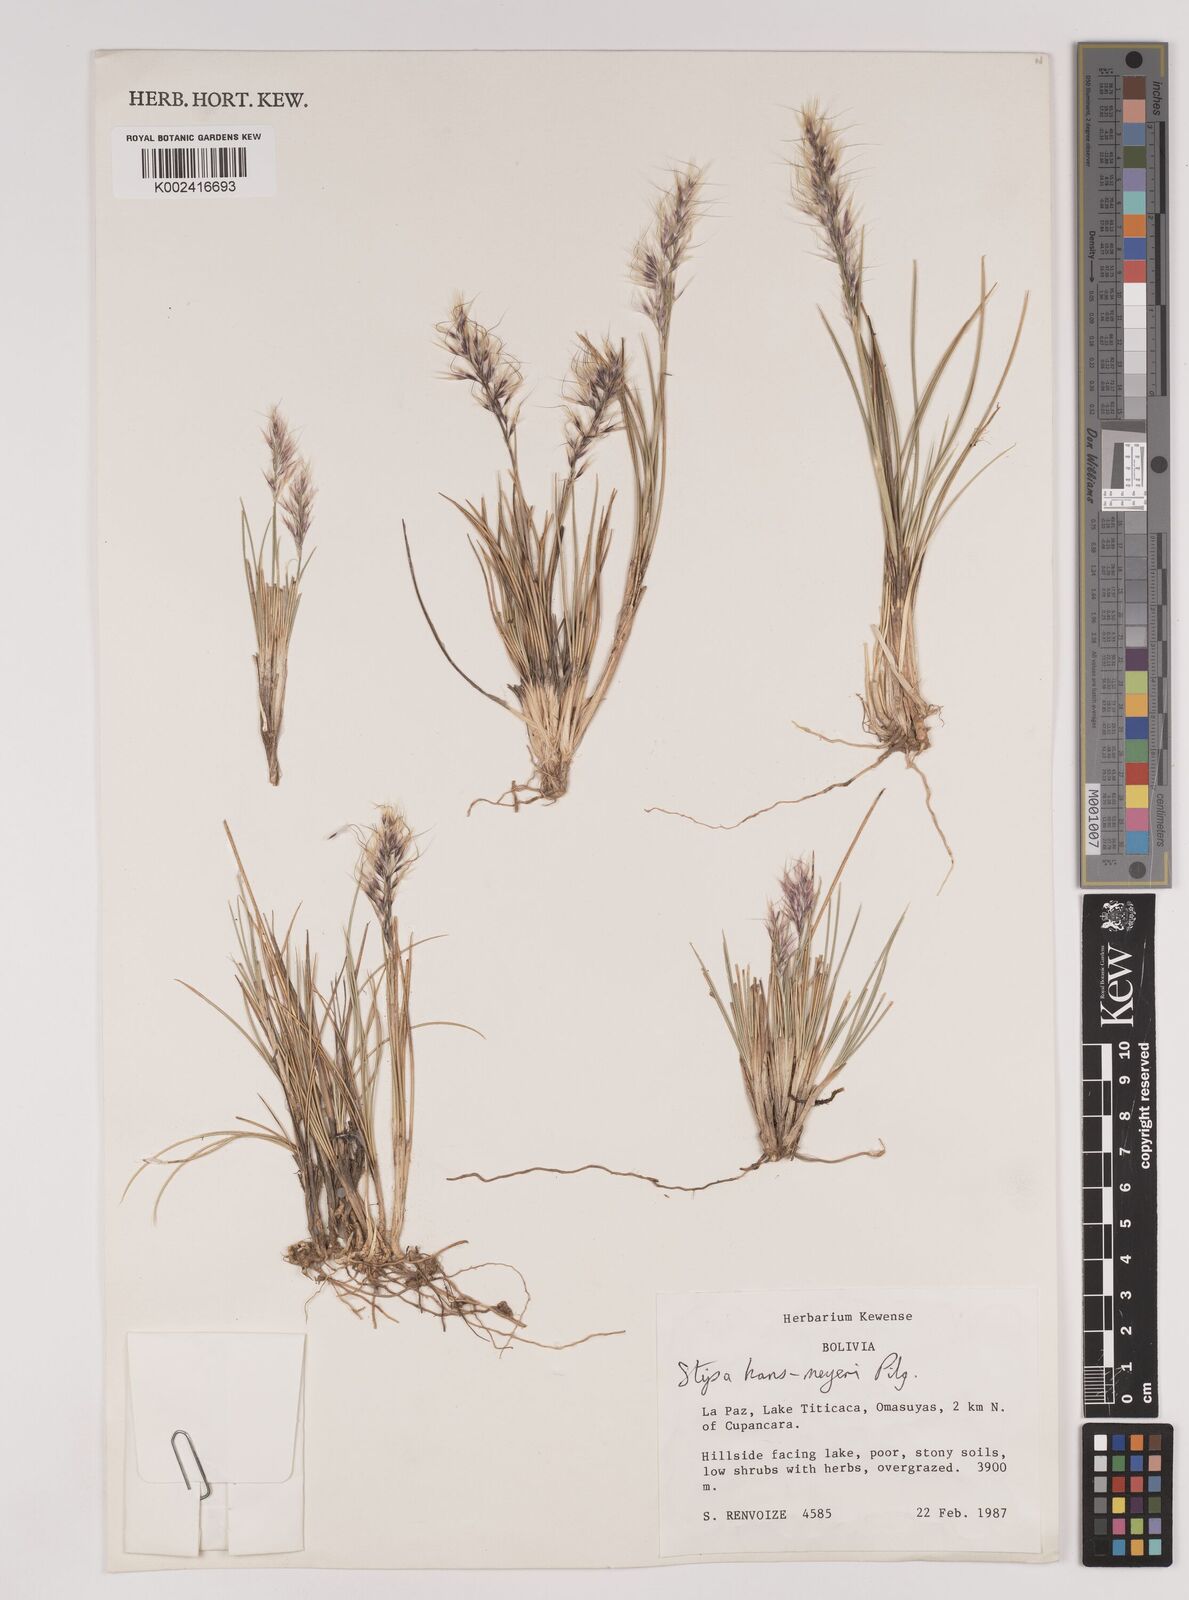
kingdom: Plantae
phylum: Tracheophyta
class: Liliopsida
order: Poales
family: Poaceae
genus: Stipa
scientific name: Stipa hans-meyeri
